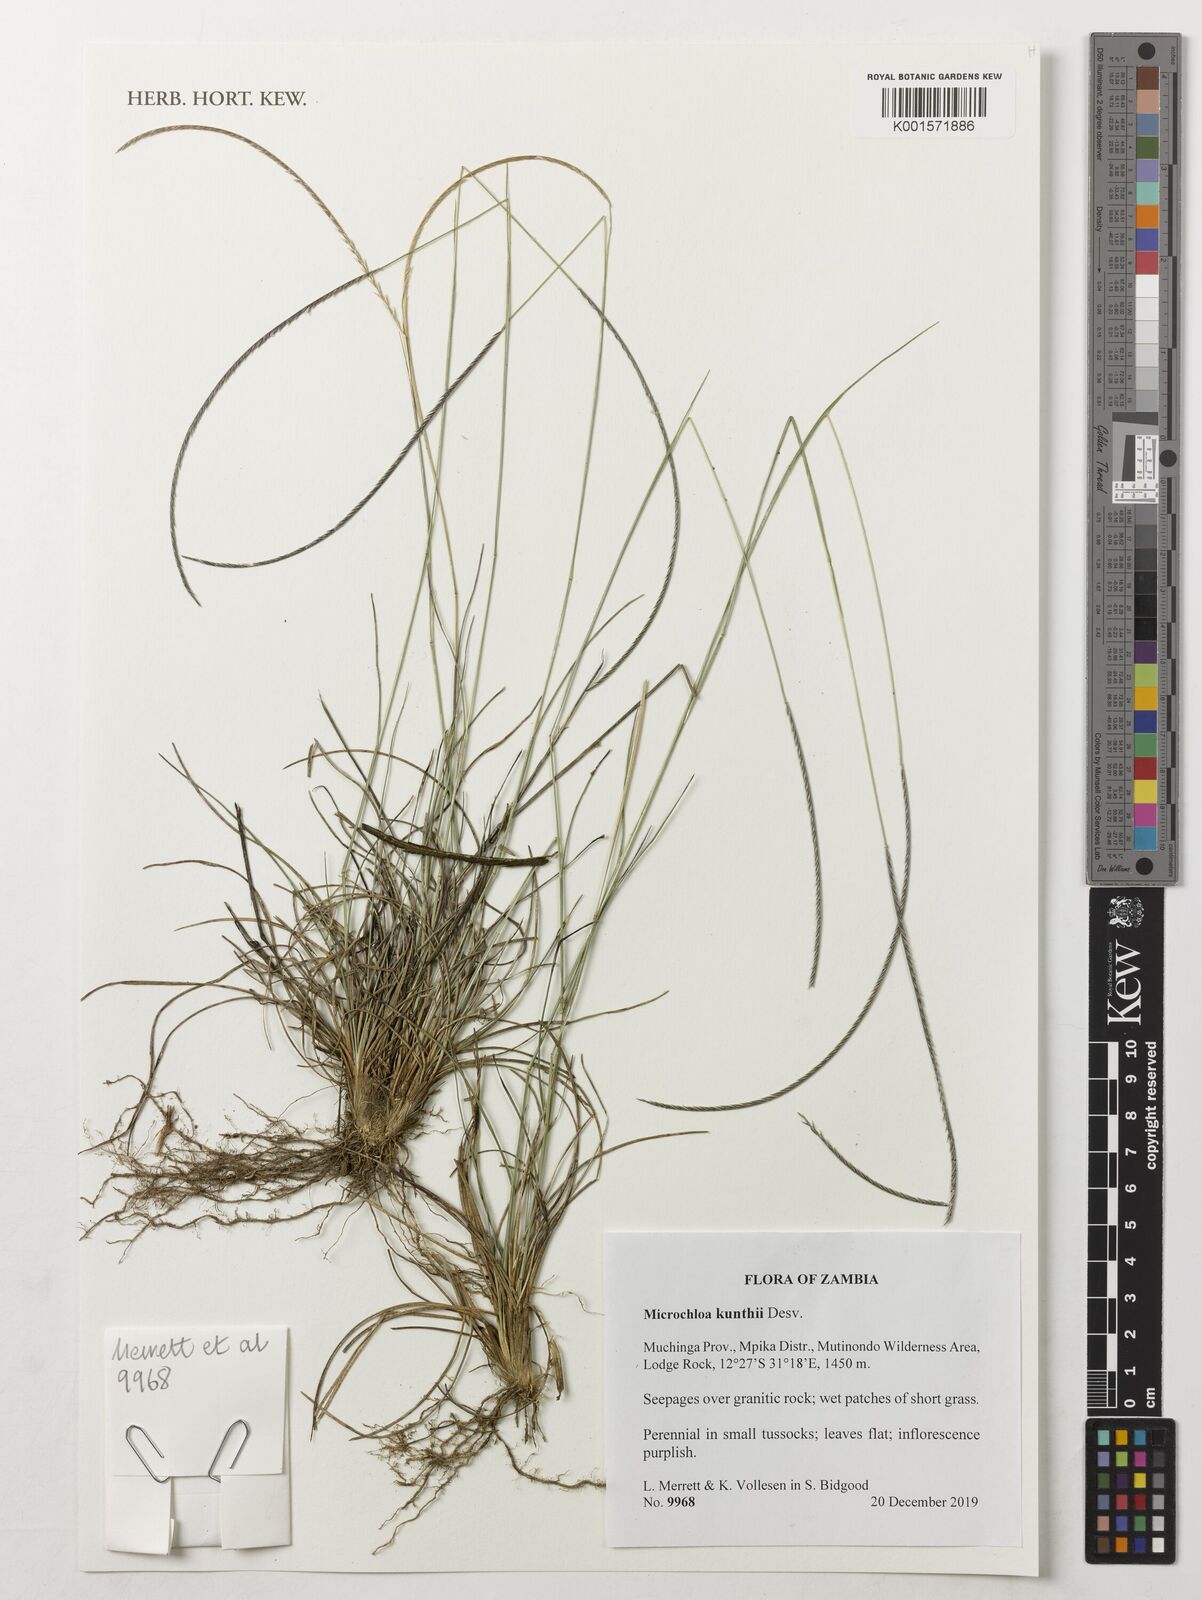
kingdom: Plantae
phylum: Tracheophyta
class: Liliopsida
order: Poales
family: Poaceae
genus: Microchloa
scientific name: Microchloa kunthii
